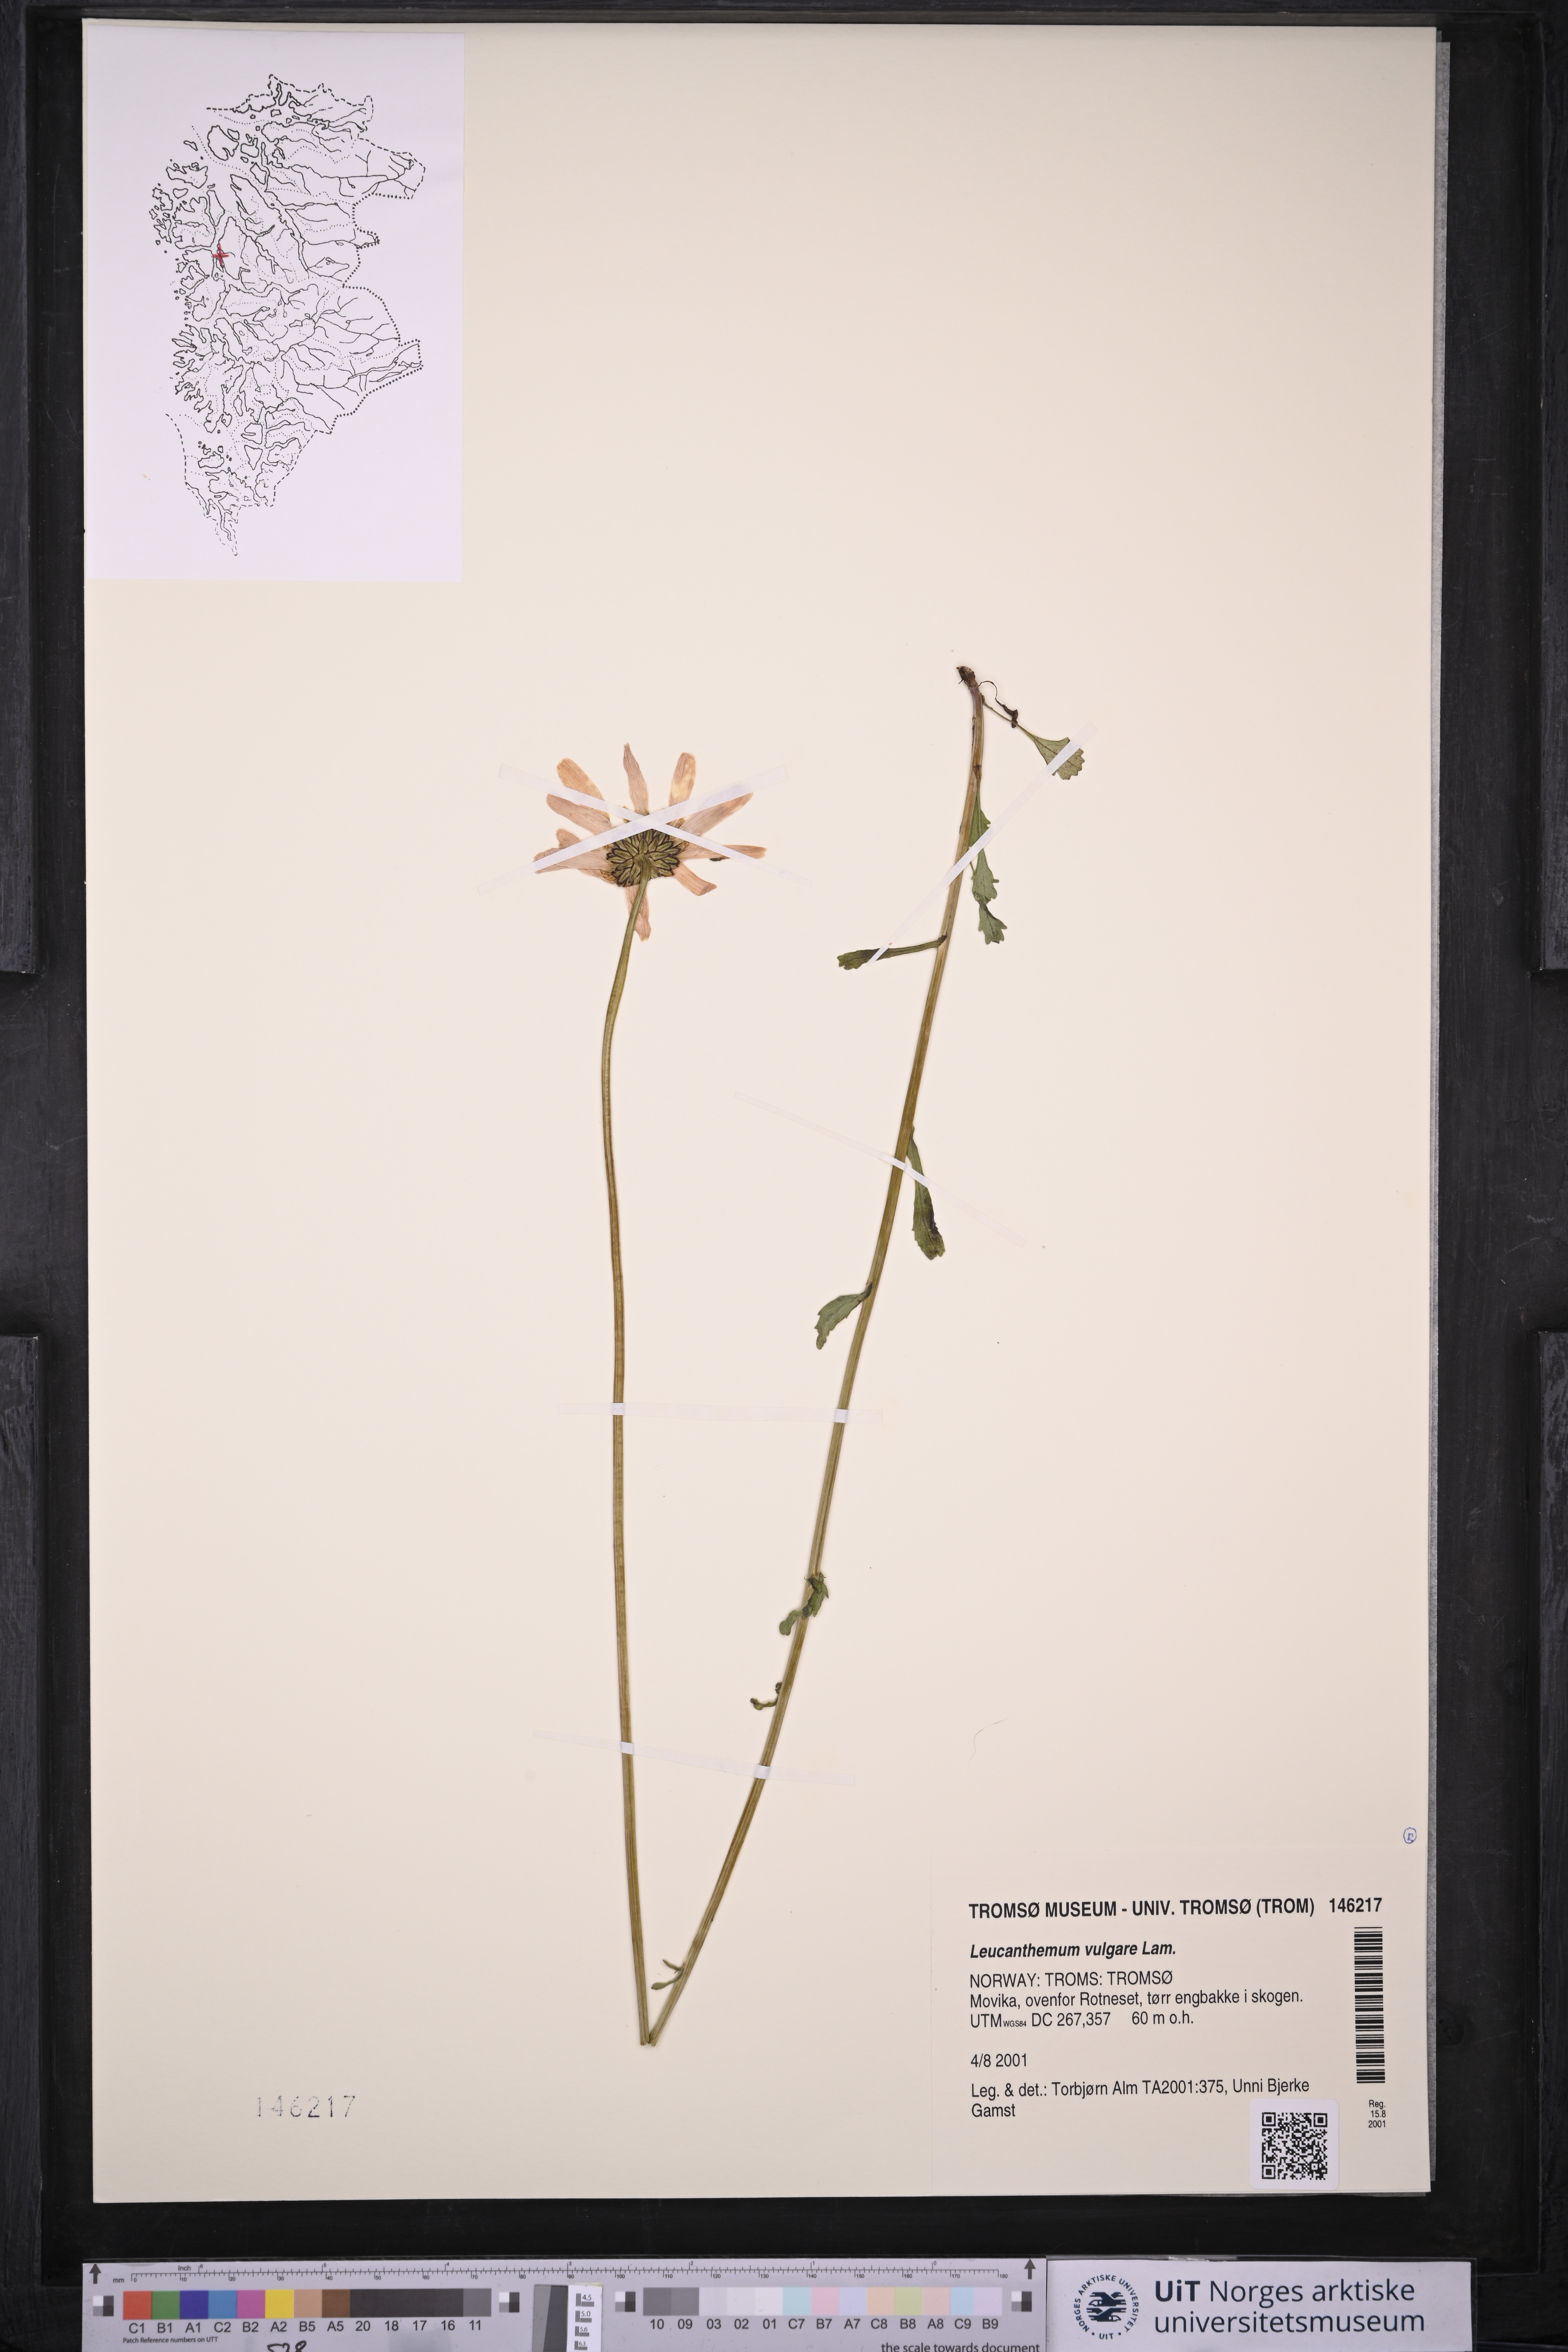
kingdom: Plantae
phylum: Tracheophyta
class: Magnoliopsida
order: Asterales
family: Asteraceae
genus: Leucanthemum
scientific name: Leucanthemum vulgare
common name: Oxeye daisy
